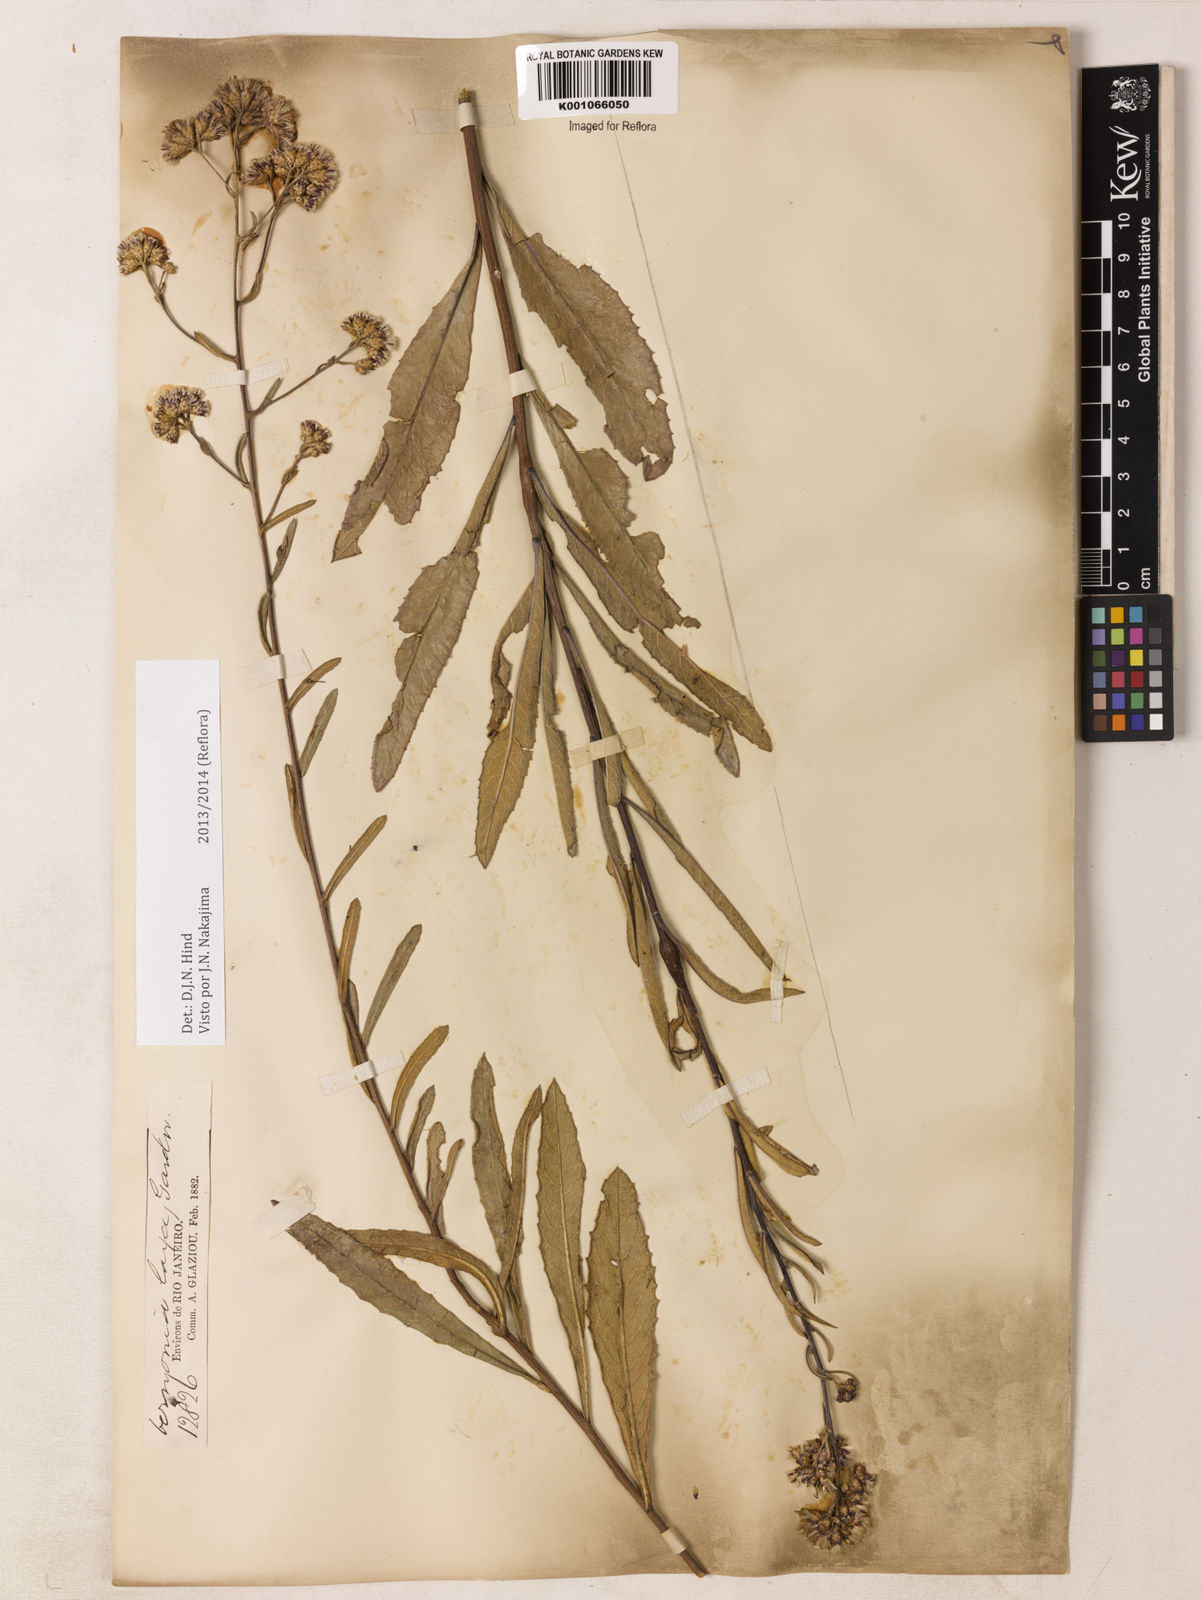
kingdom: Plantae
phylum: Tracheophyta
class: Magnoliopsida
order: Asterales
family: Asteraceae
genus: Vernonanthura
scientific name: Vernonanthura laxa
